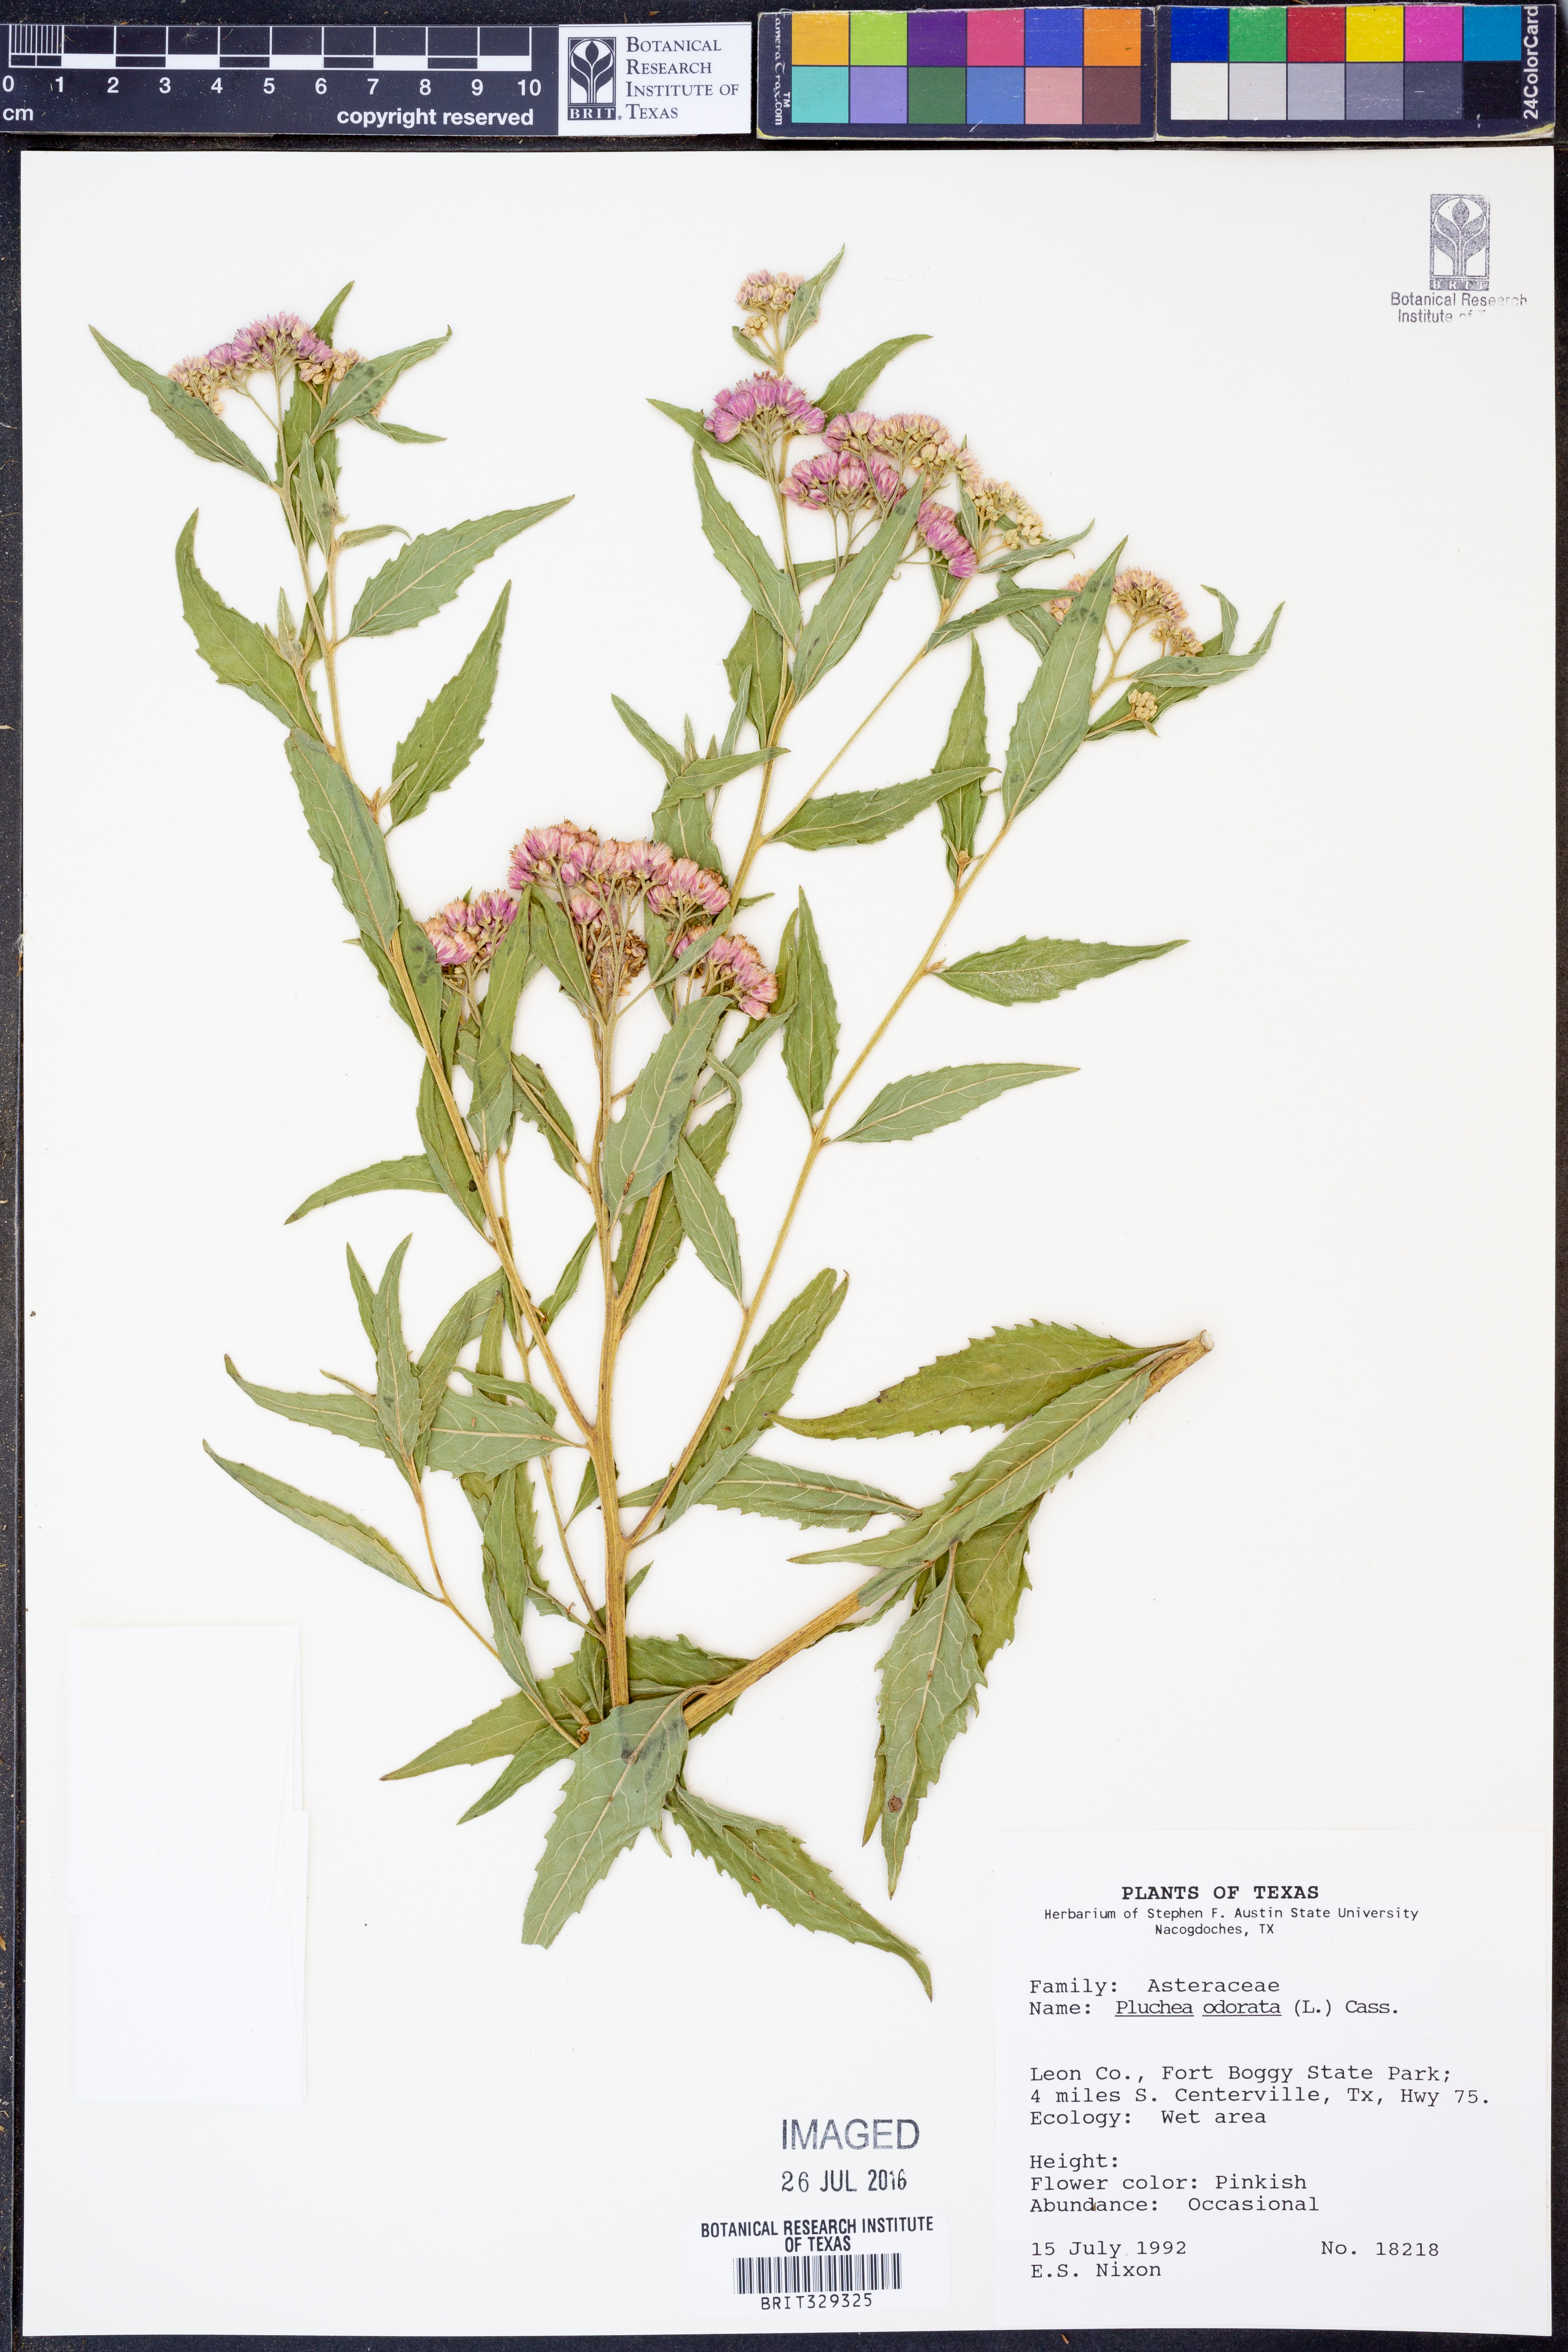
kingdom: Plantae
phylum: Tracheophyta
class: Magnoliopsida
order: Asterales
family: Asteraceae
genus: Pluchea
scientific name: Pluchea odorata
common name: Saltmarsh fleabane
